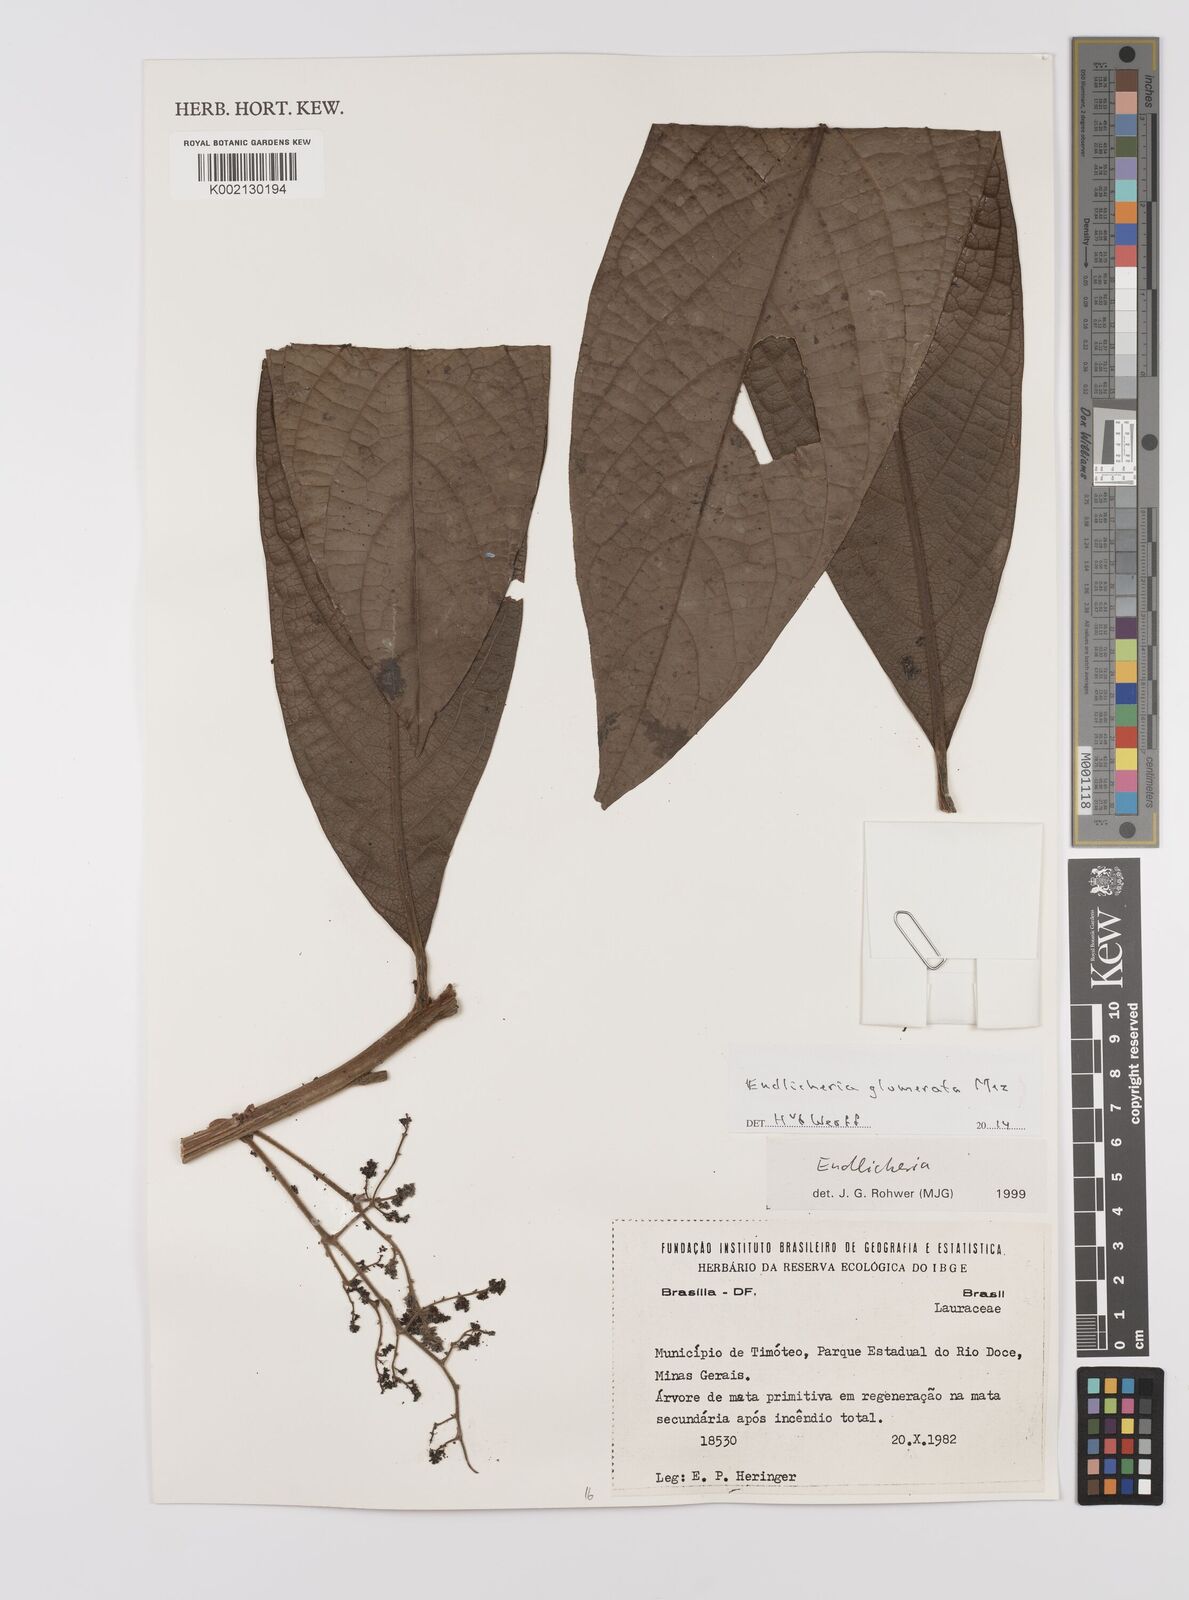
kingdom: Plantae
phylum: Tracheophyta
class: Magnoliopsida
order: Laurales
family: Lauraceae
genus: Endlicheria
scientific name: Endlicheria glomerata
